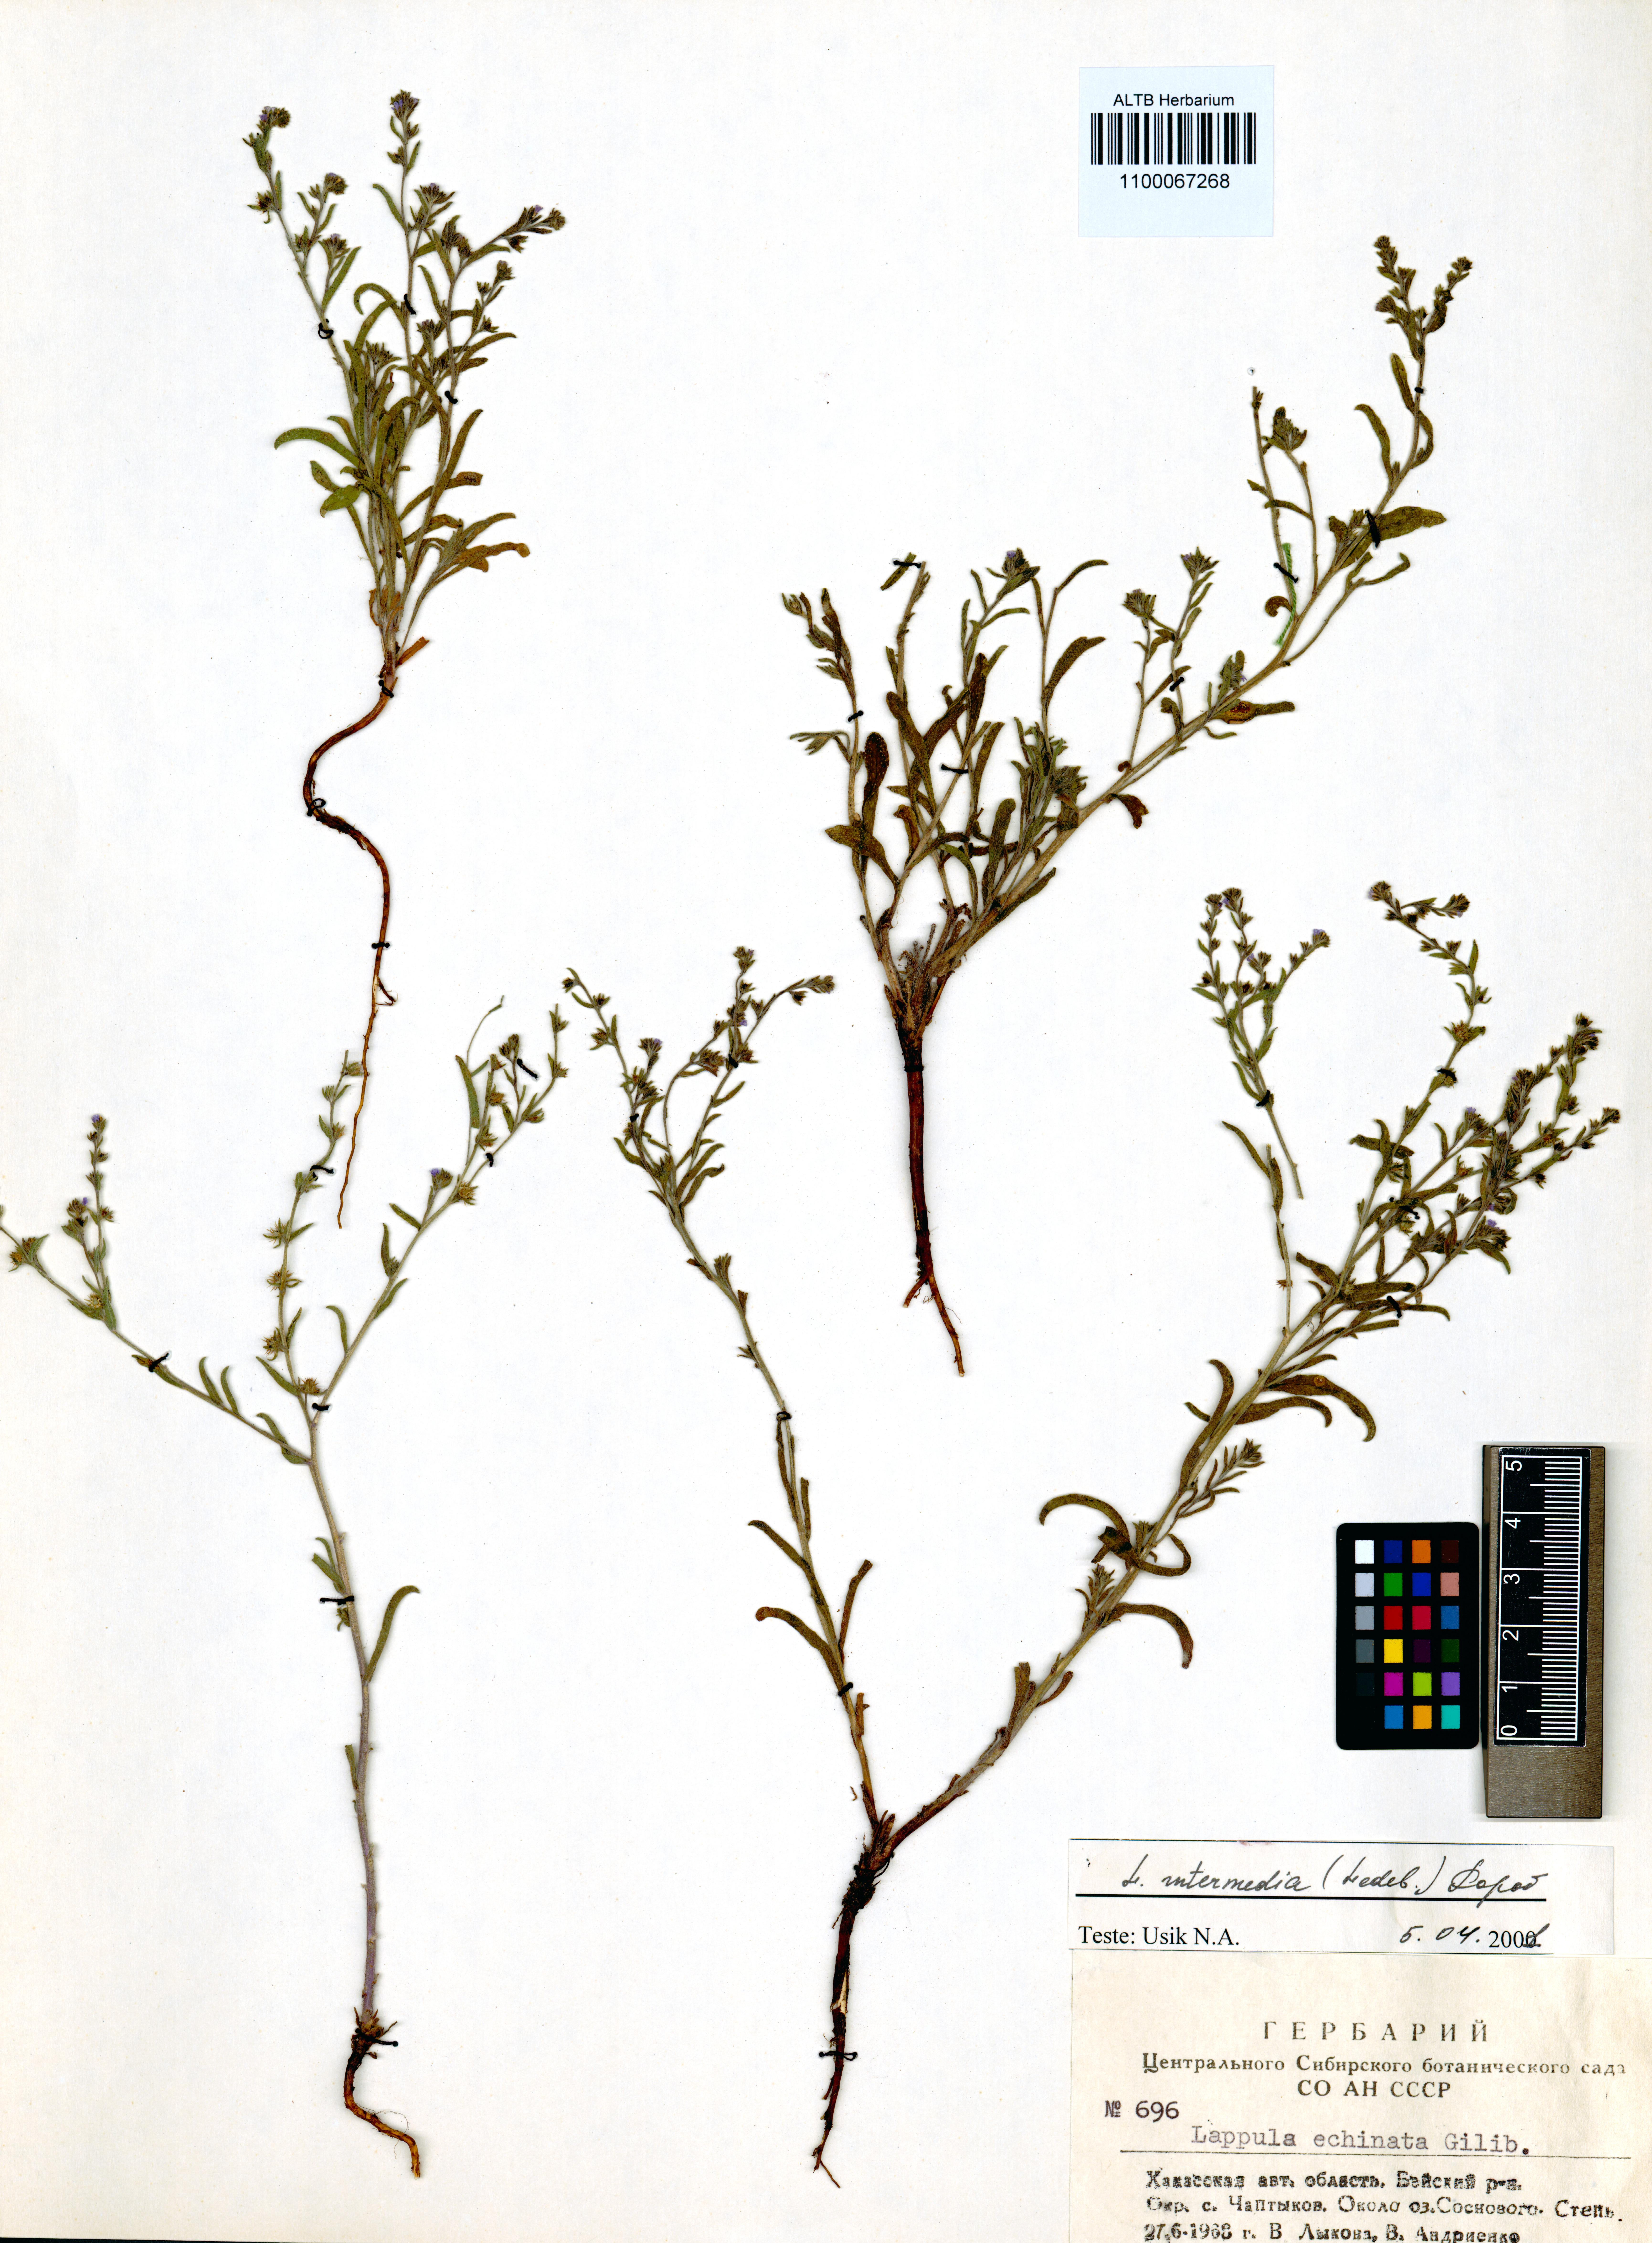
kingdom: Plantae
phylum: Tracheophyta
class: Magnoliopsida
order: Boraginales
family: Boraginaceae
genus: Lappula
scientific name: Lappula intermedia
